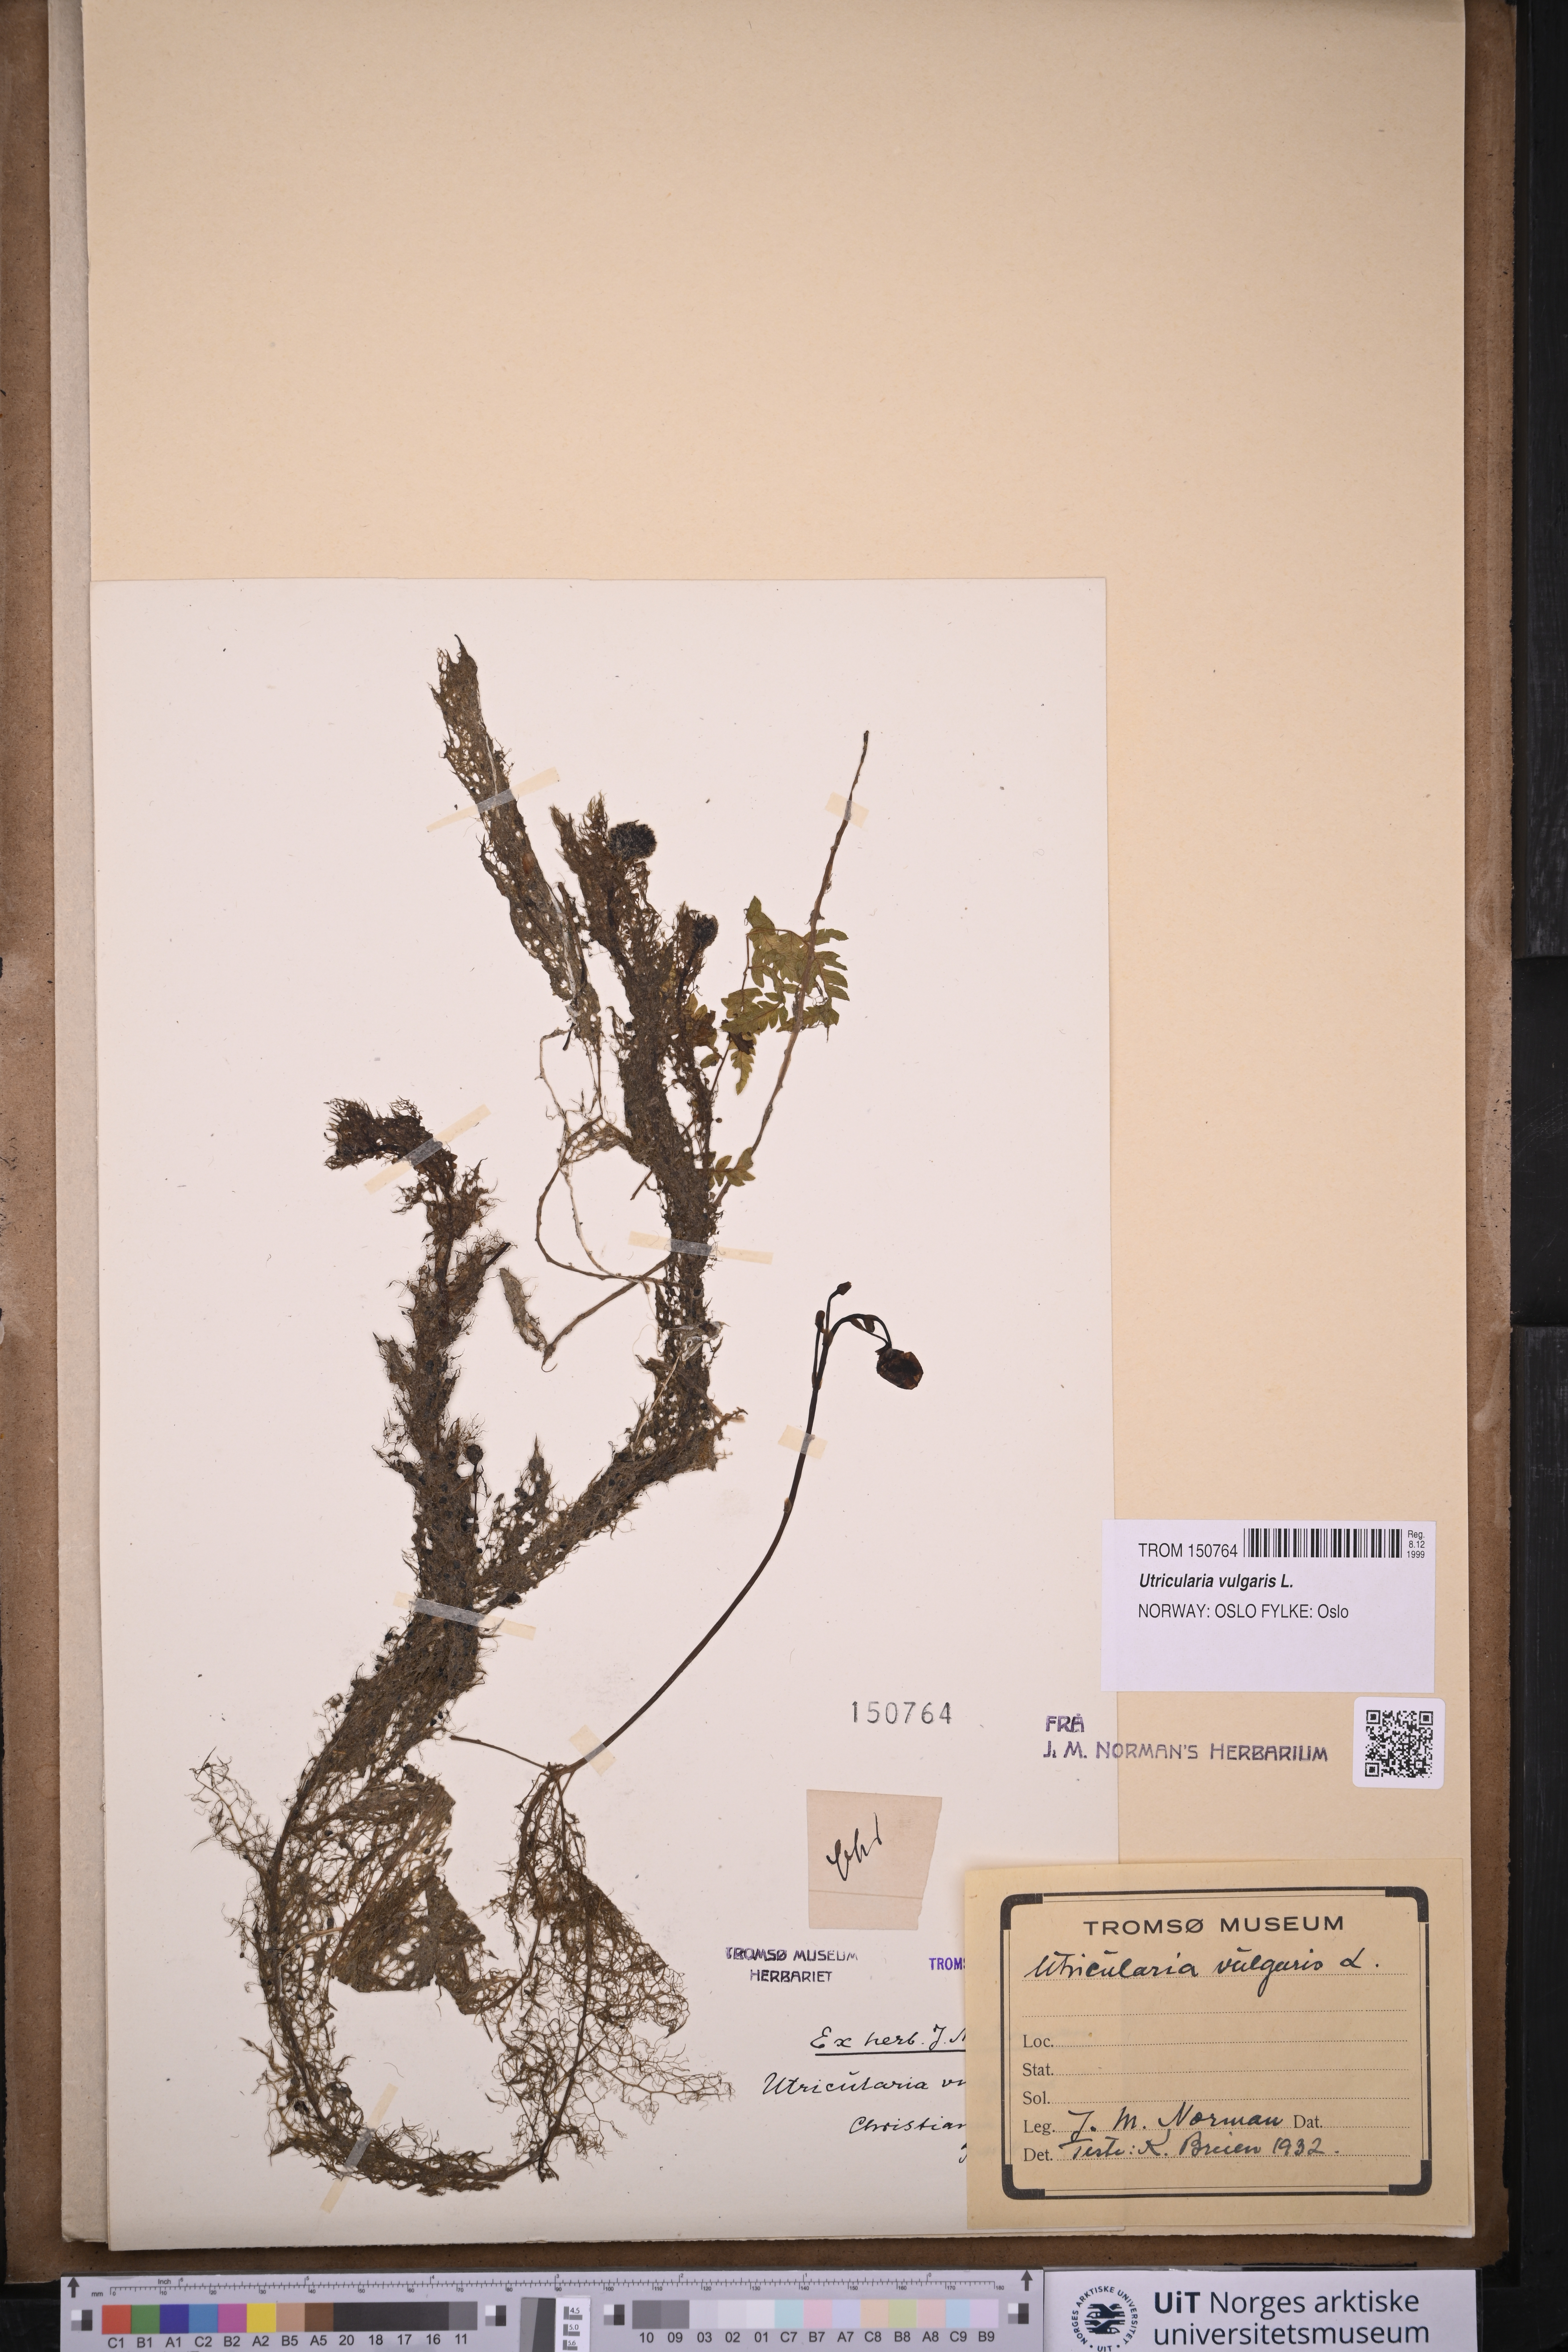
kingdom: Plantae
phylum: Tracheophyta
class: Magnoliopsida
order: Lamiales
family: Lentibulariaceae
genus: Utricularia
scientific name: Utricularia vulgaris
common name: Greater bladderwort
